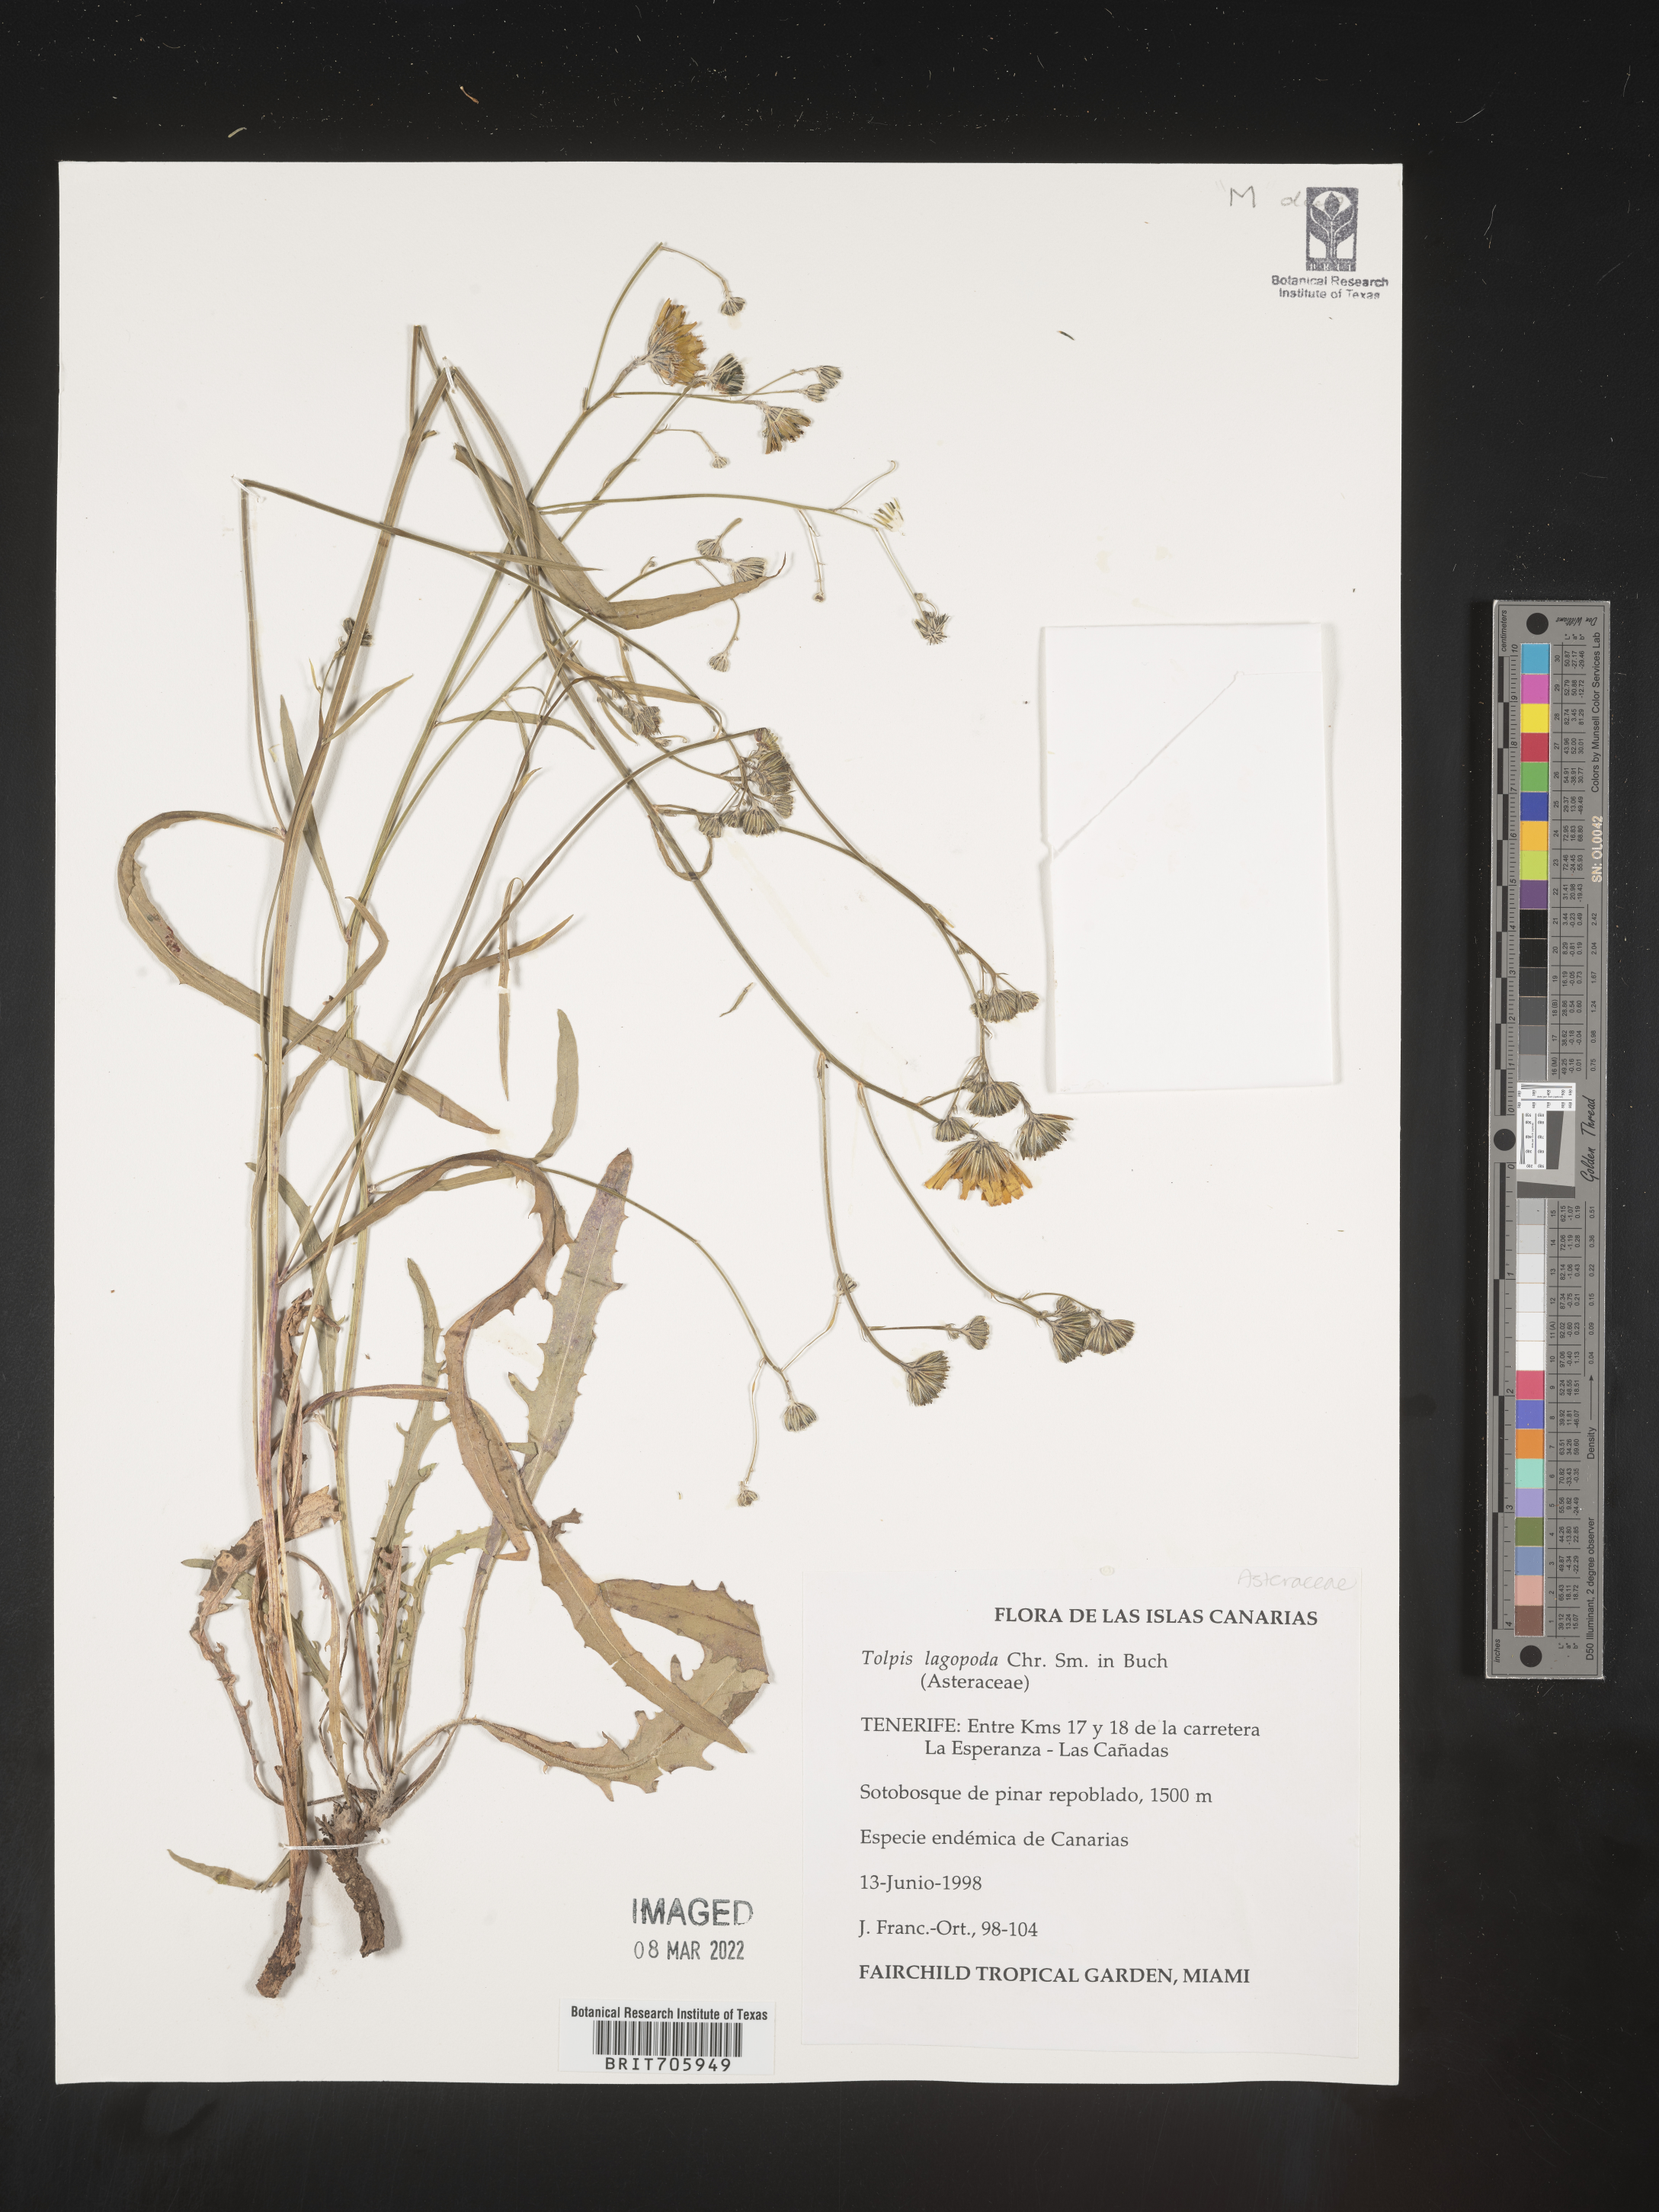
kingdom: Plantae
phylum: Tracheophyta
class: Magnoliopsida
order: Asterales
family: Asteraceae
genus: Tolpis
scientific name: Tolpis
